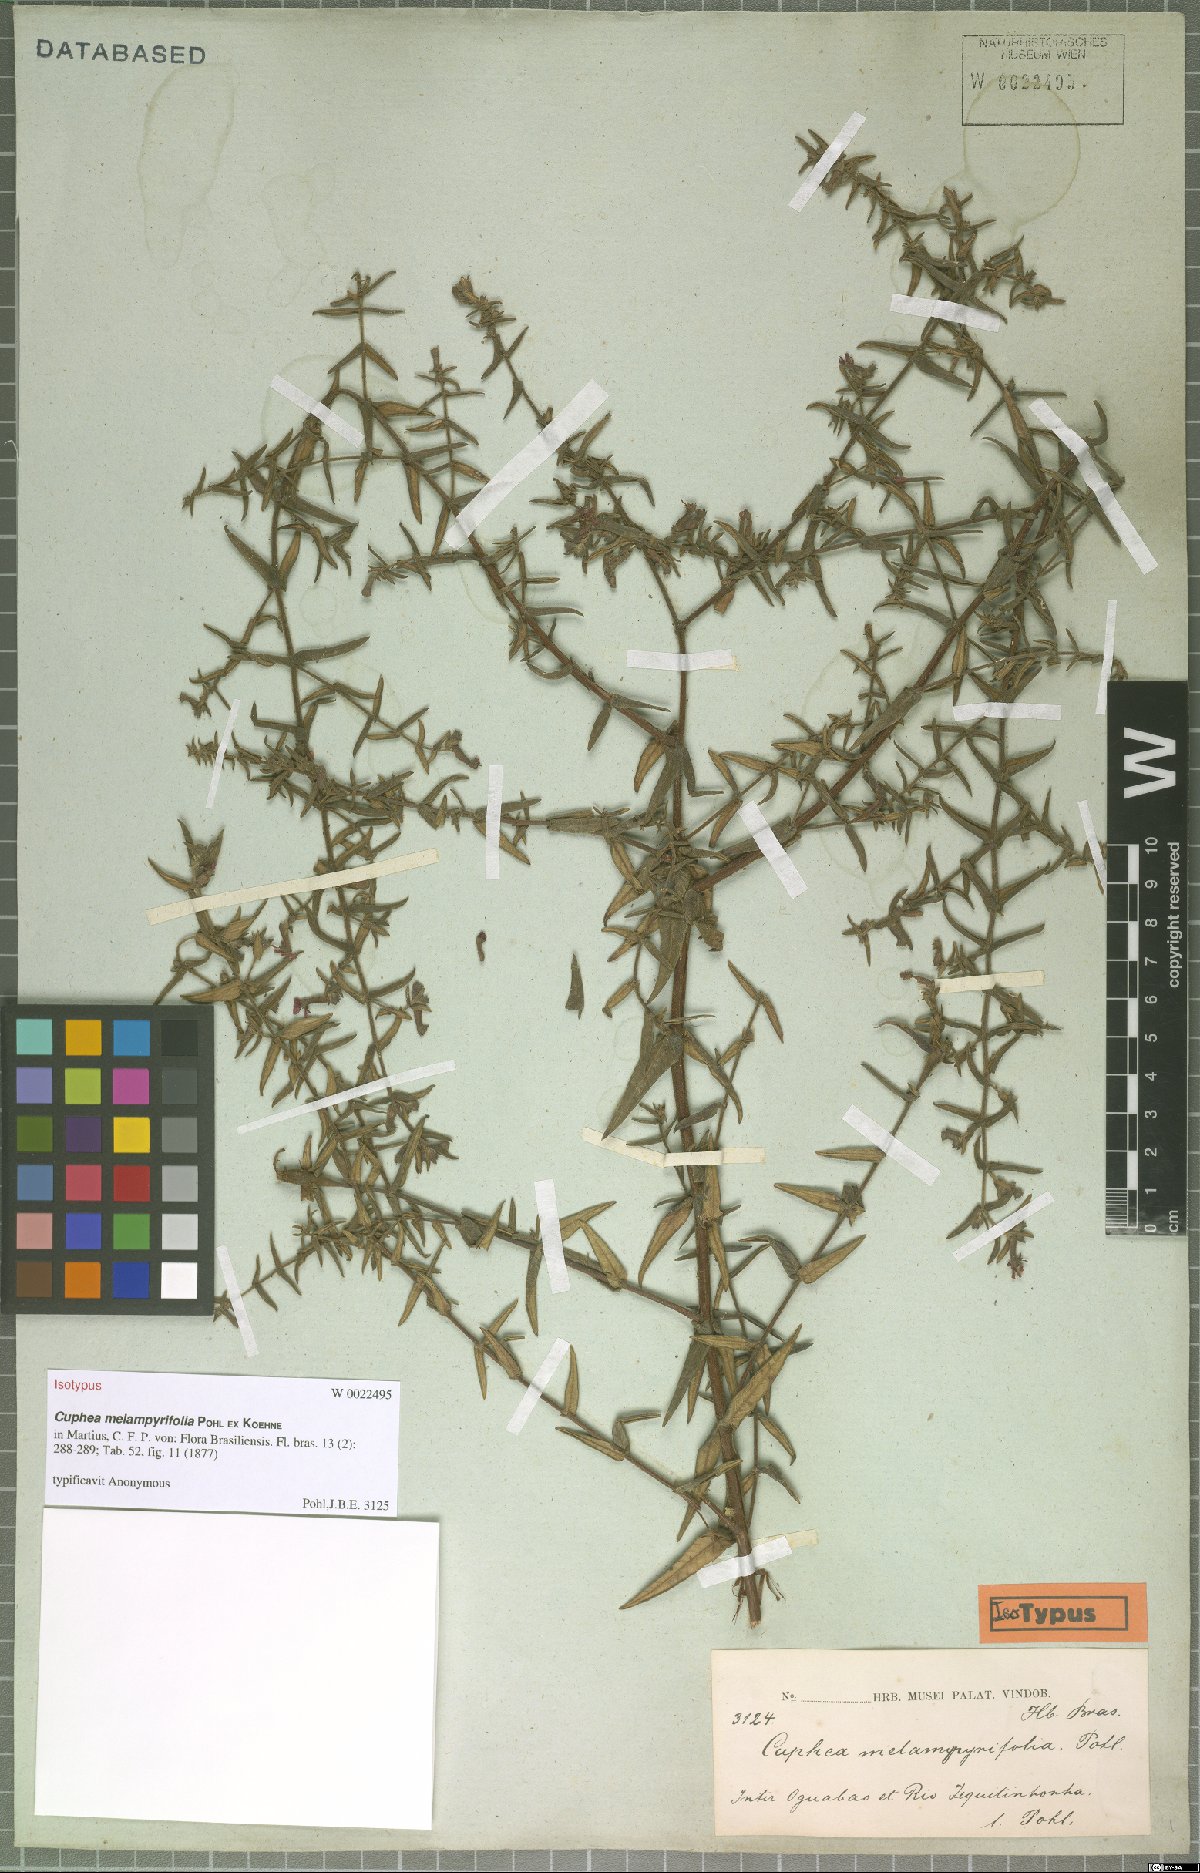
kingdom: Plantae
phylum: Tracheophyta
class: Magnoliopsida
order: Myrtales
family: Lythraceae
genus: Cuphea
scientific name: Cuphea sessiliflora
